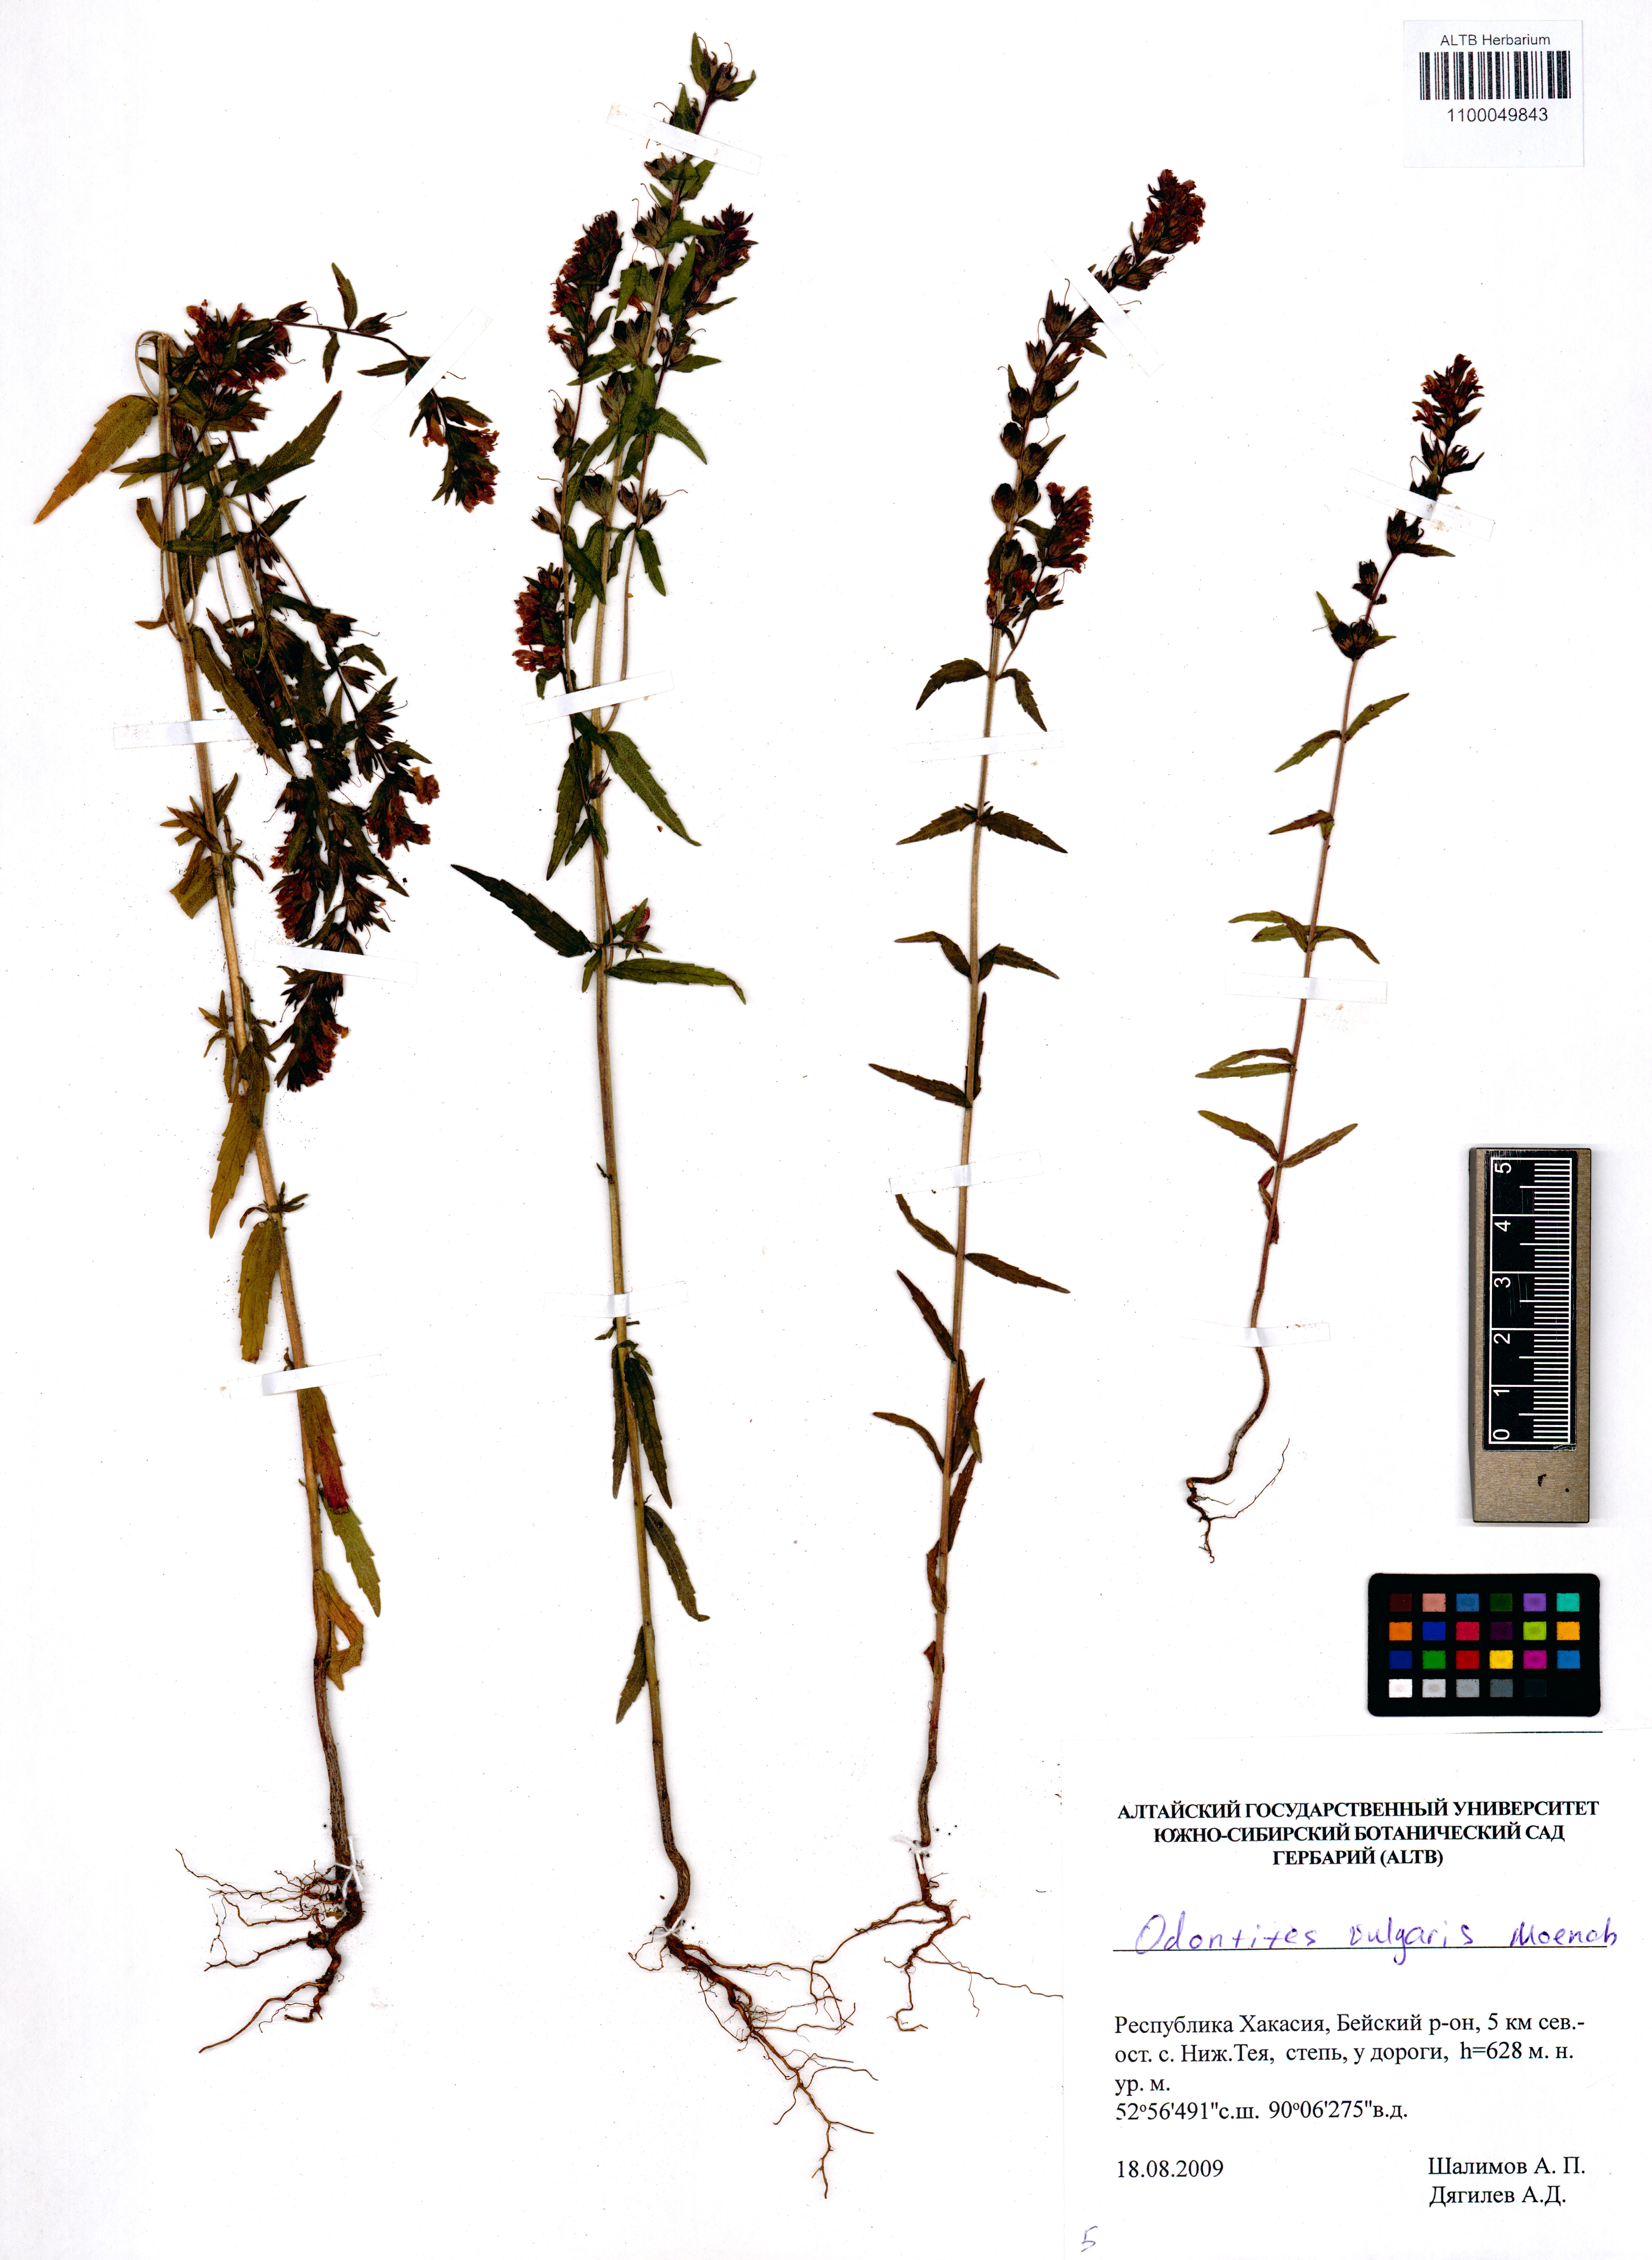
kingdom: Plantae
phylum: Tracheophyta
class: Magnoliopsida
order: Lamiales
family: Orobanchaceae
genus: Odontites
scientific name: Odontites vulgaris
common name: Broomrape
